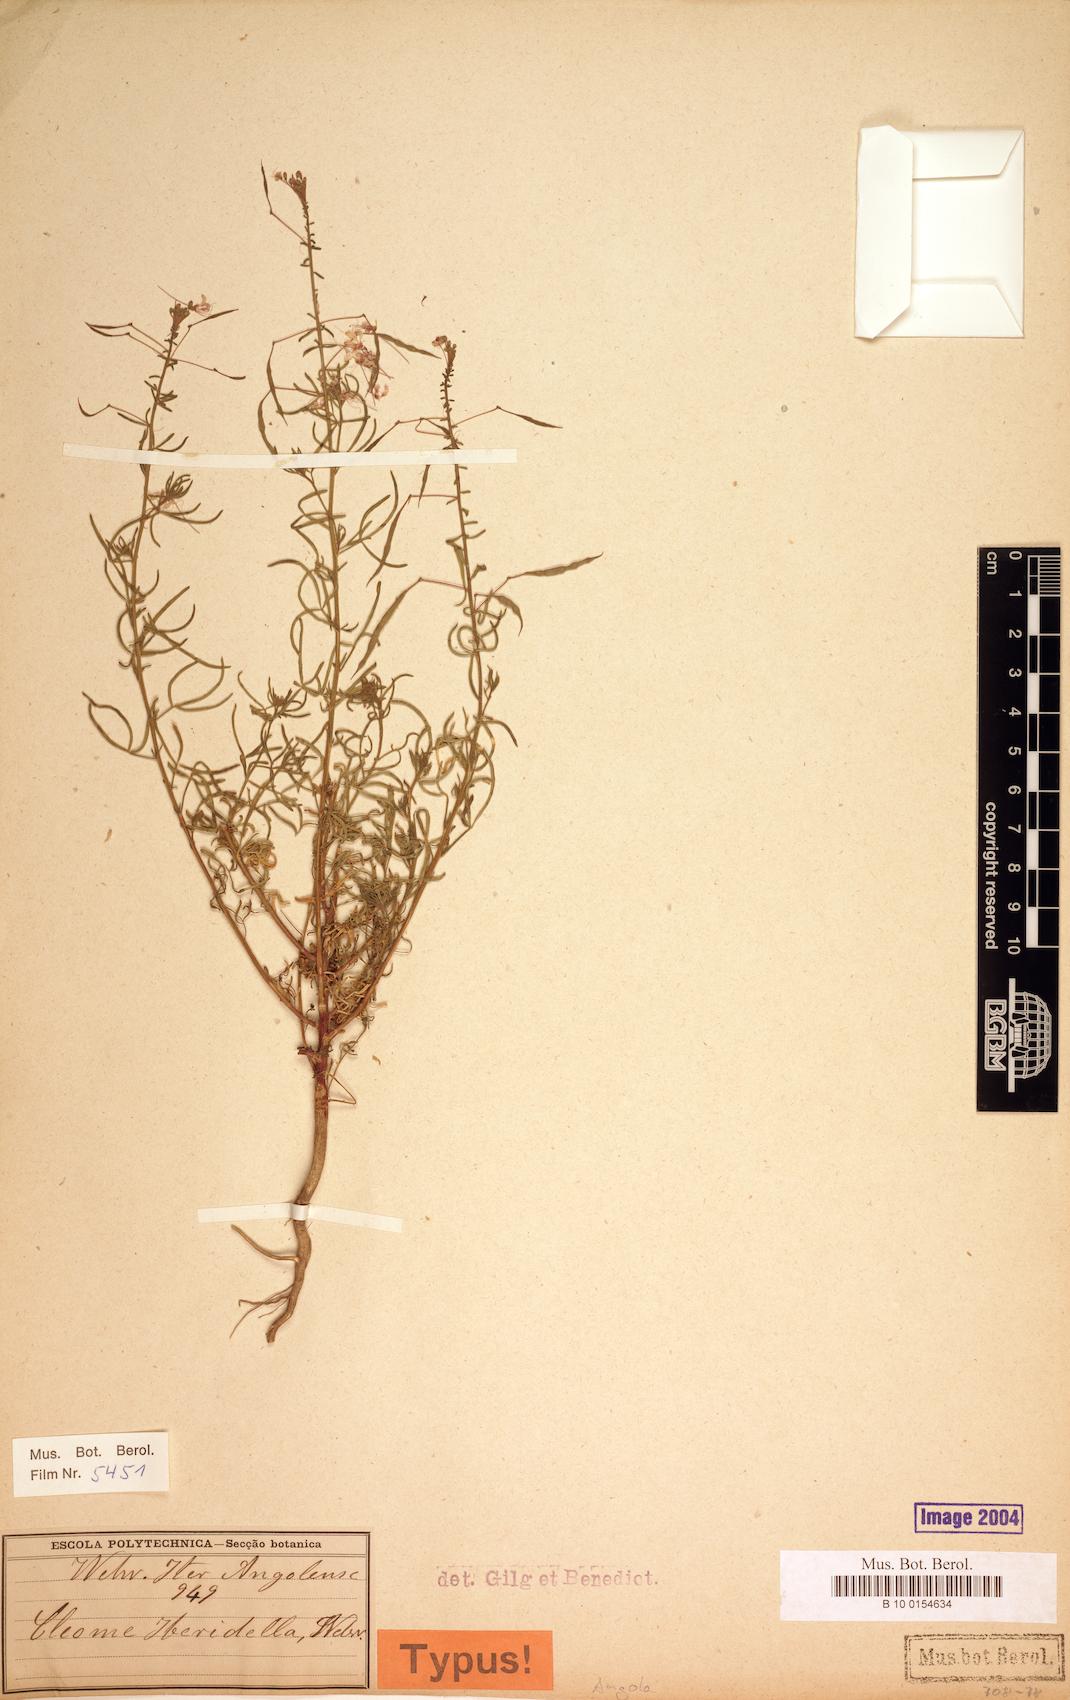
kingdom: Plantae
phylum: Tracheophyta
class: Magnoliopsida
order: Brassicales
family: Cleomaceae
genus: Sieruela
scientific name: Sieruela iberidella
